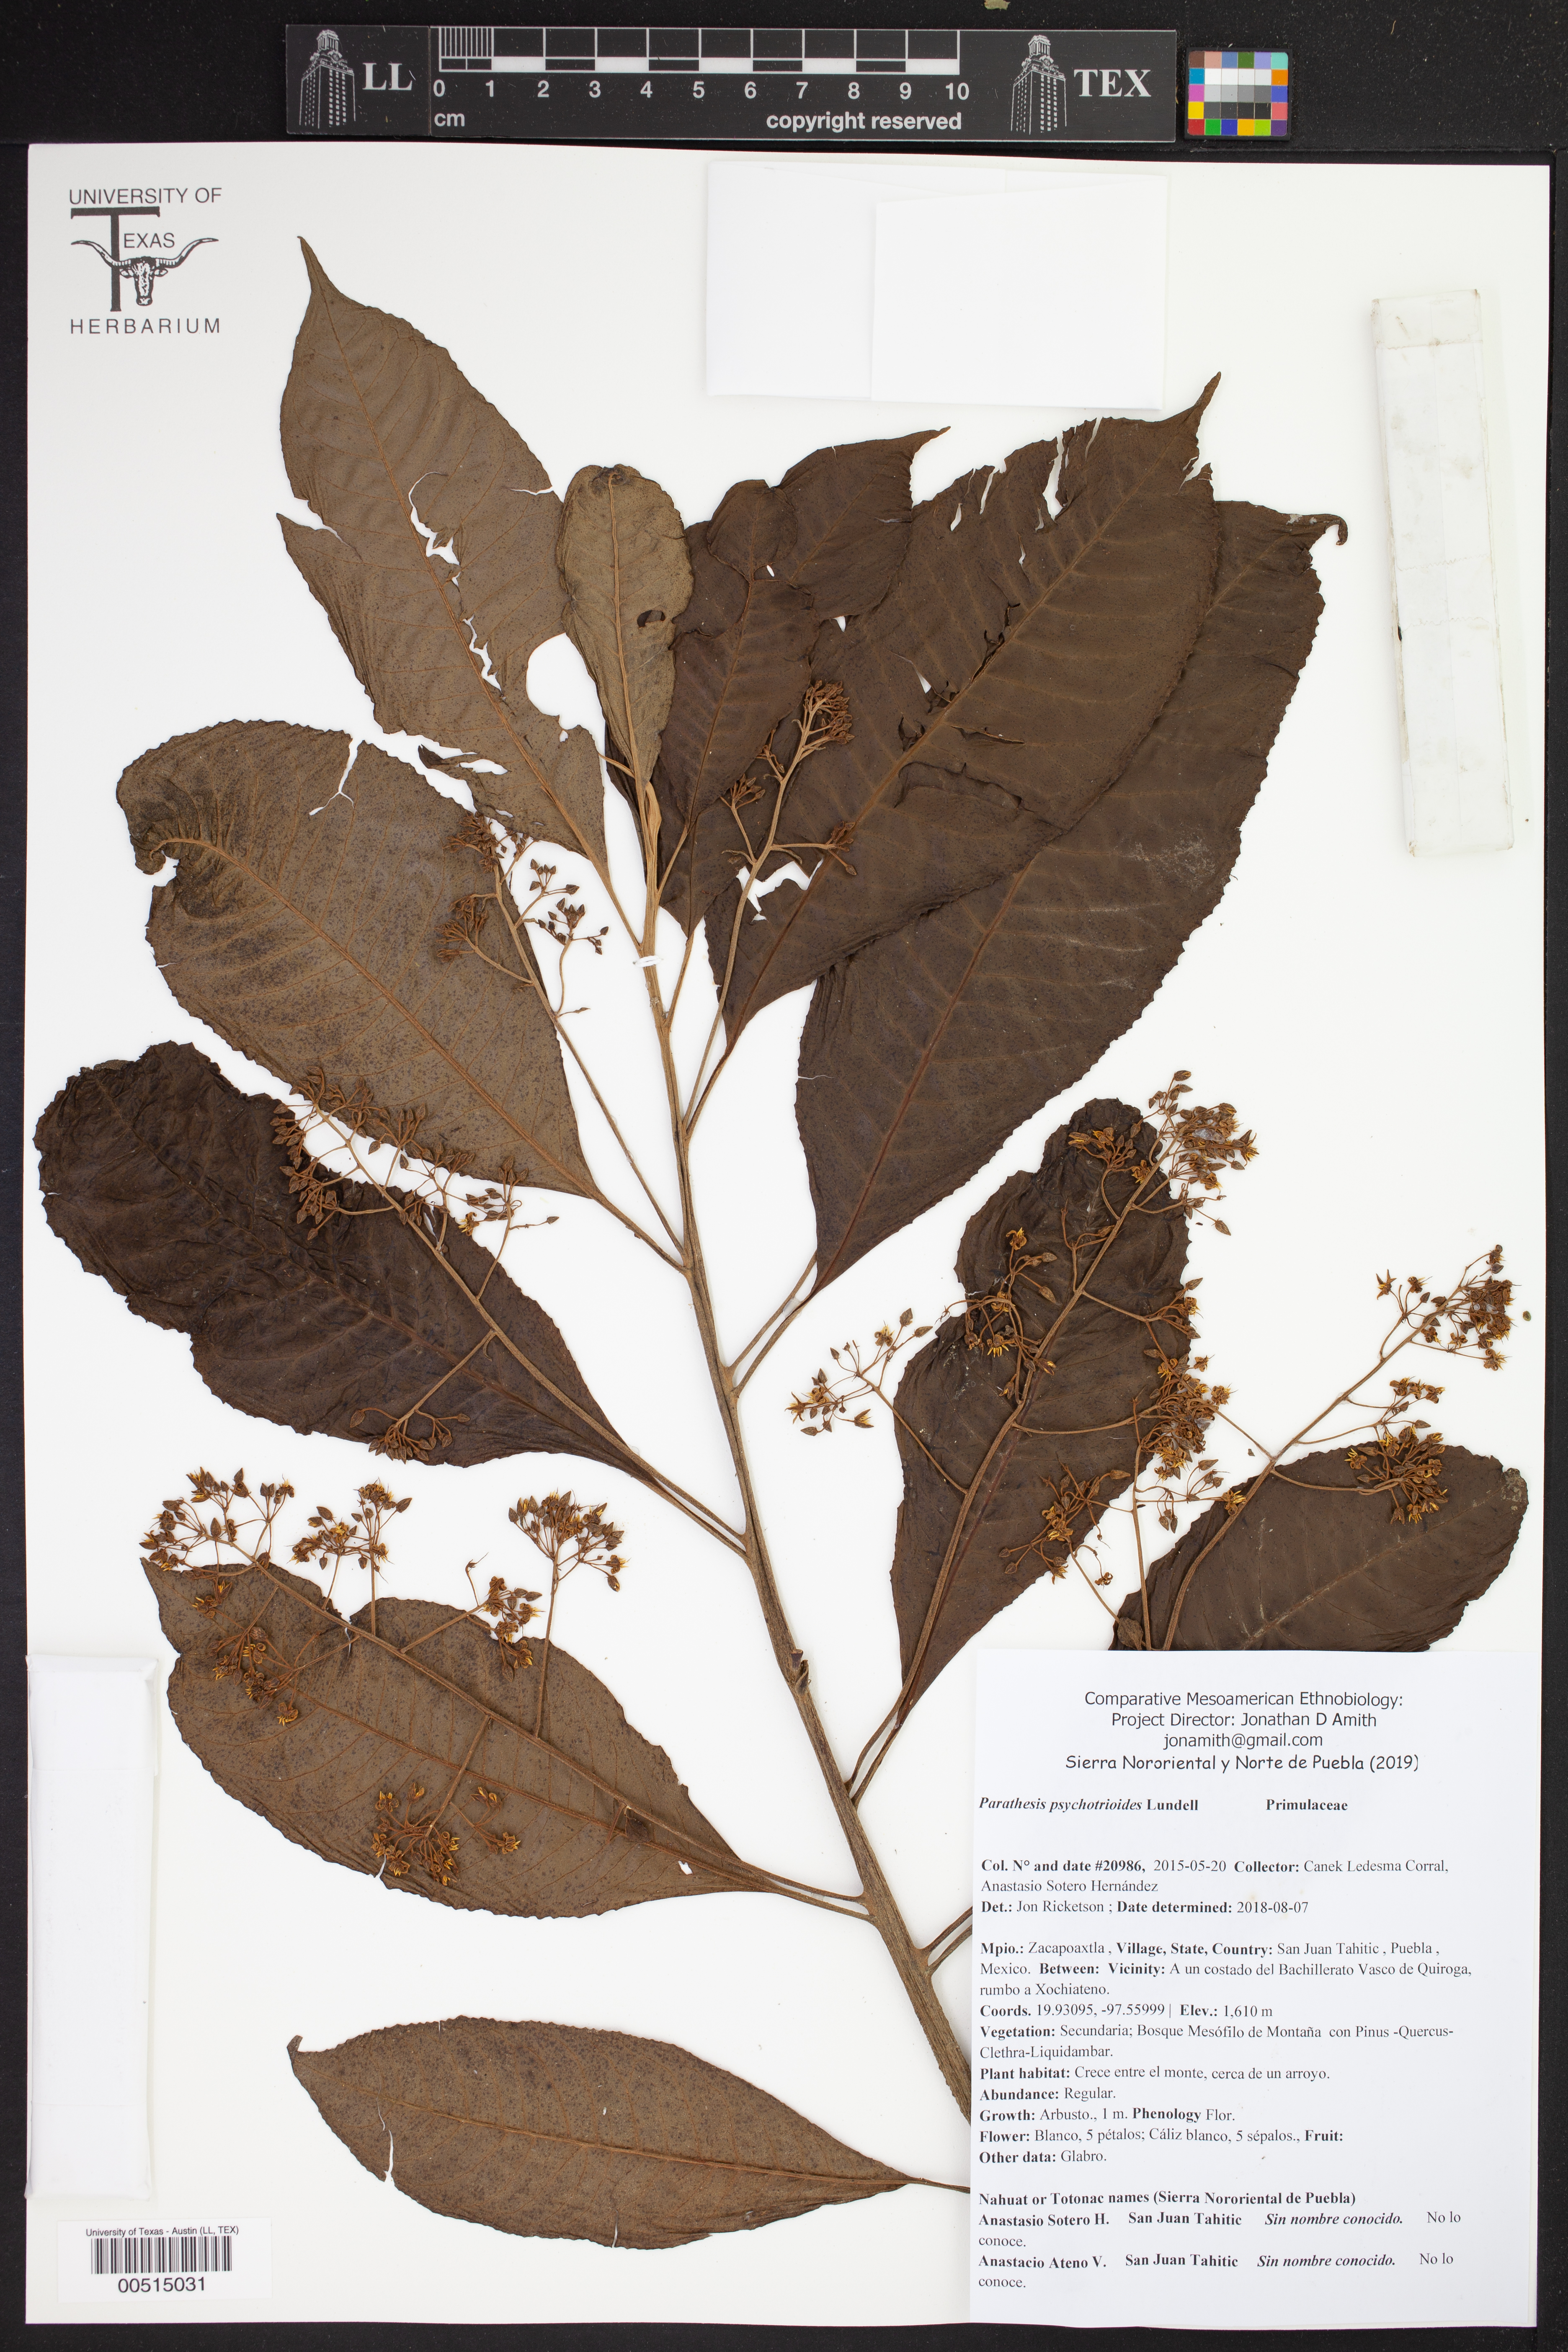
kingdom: Plantae
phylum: Tracheophyta
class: Magnoliopsida
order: Ericales
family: Primulaceae
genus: Parathesis
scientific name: Parathesis psychotrioides
